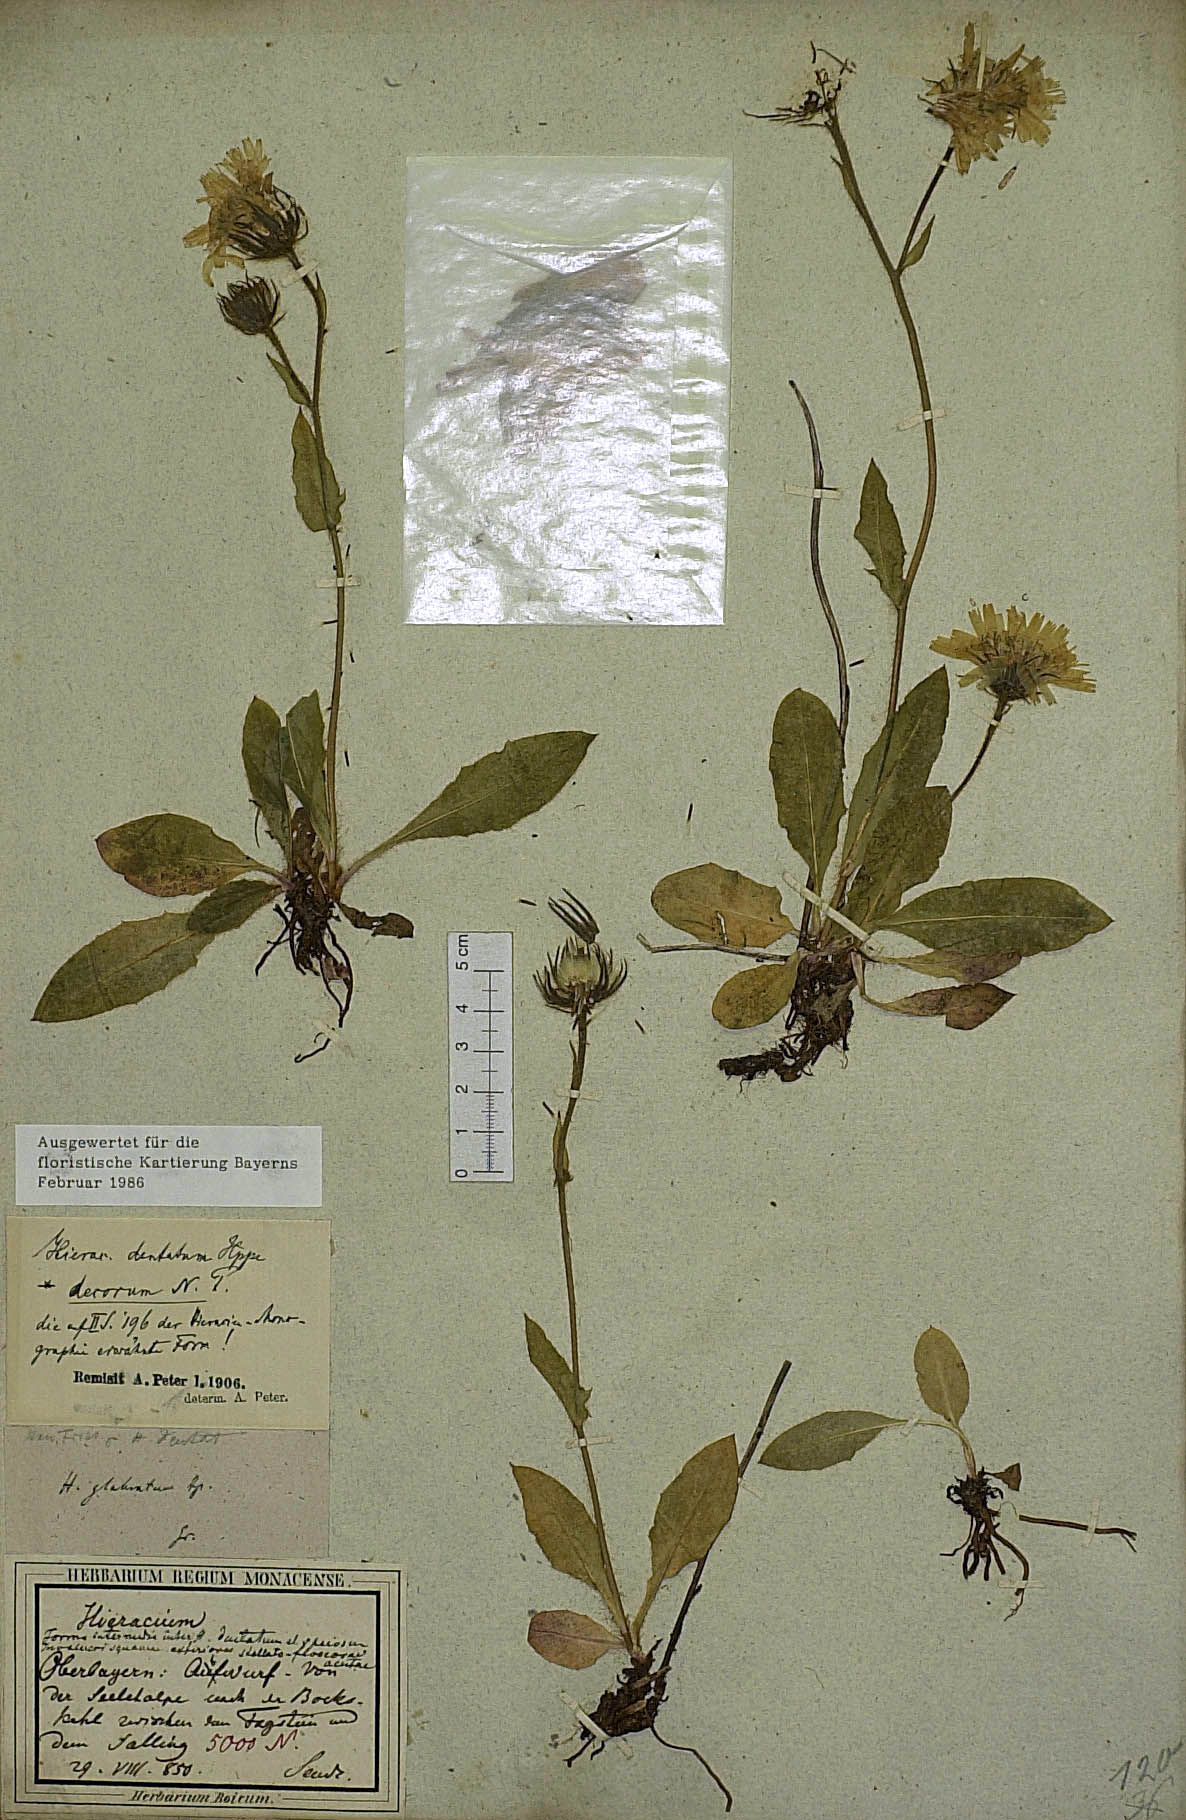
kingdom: Plantae
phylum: Tracheophyta
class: Magnoliopsida
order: Asterales
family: Asteraceae
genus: Hieracium
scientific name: Hieracium dentatum
